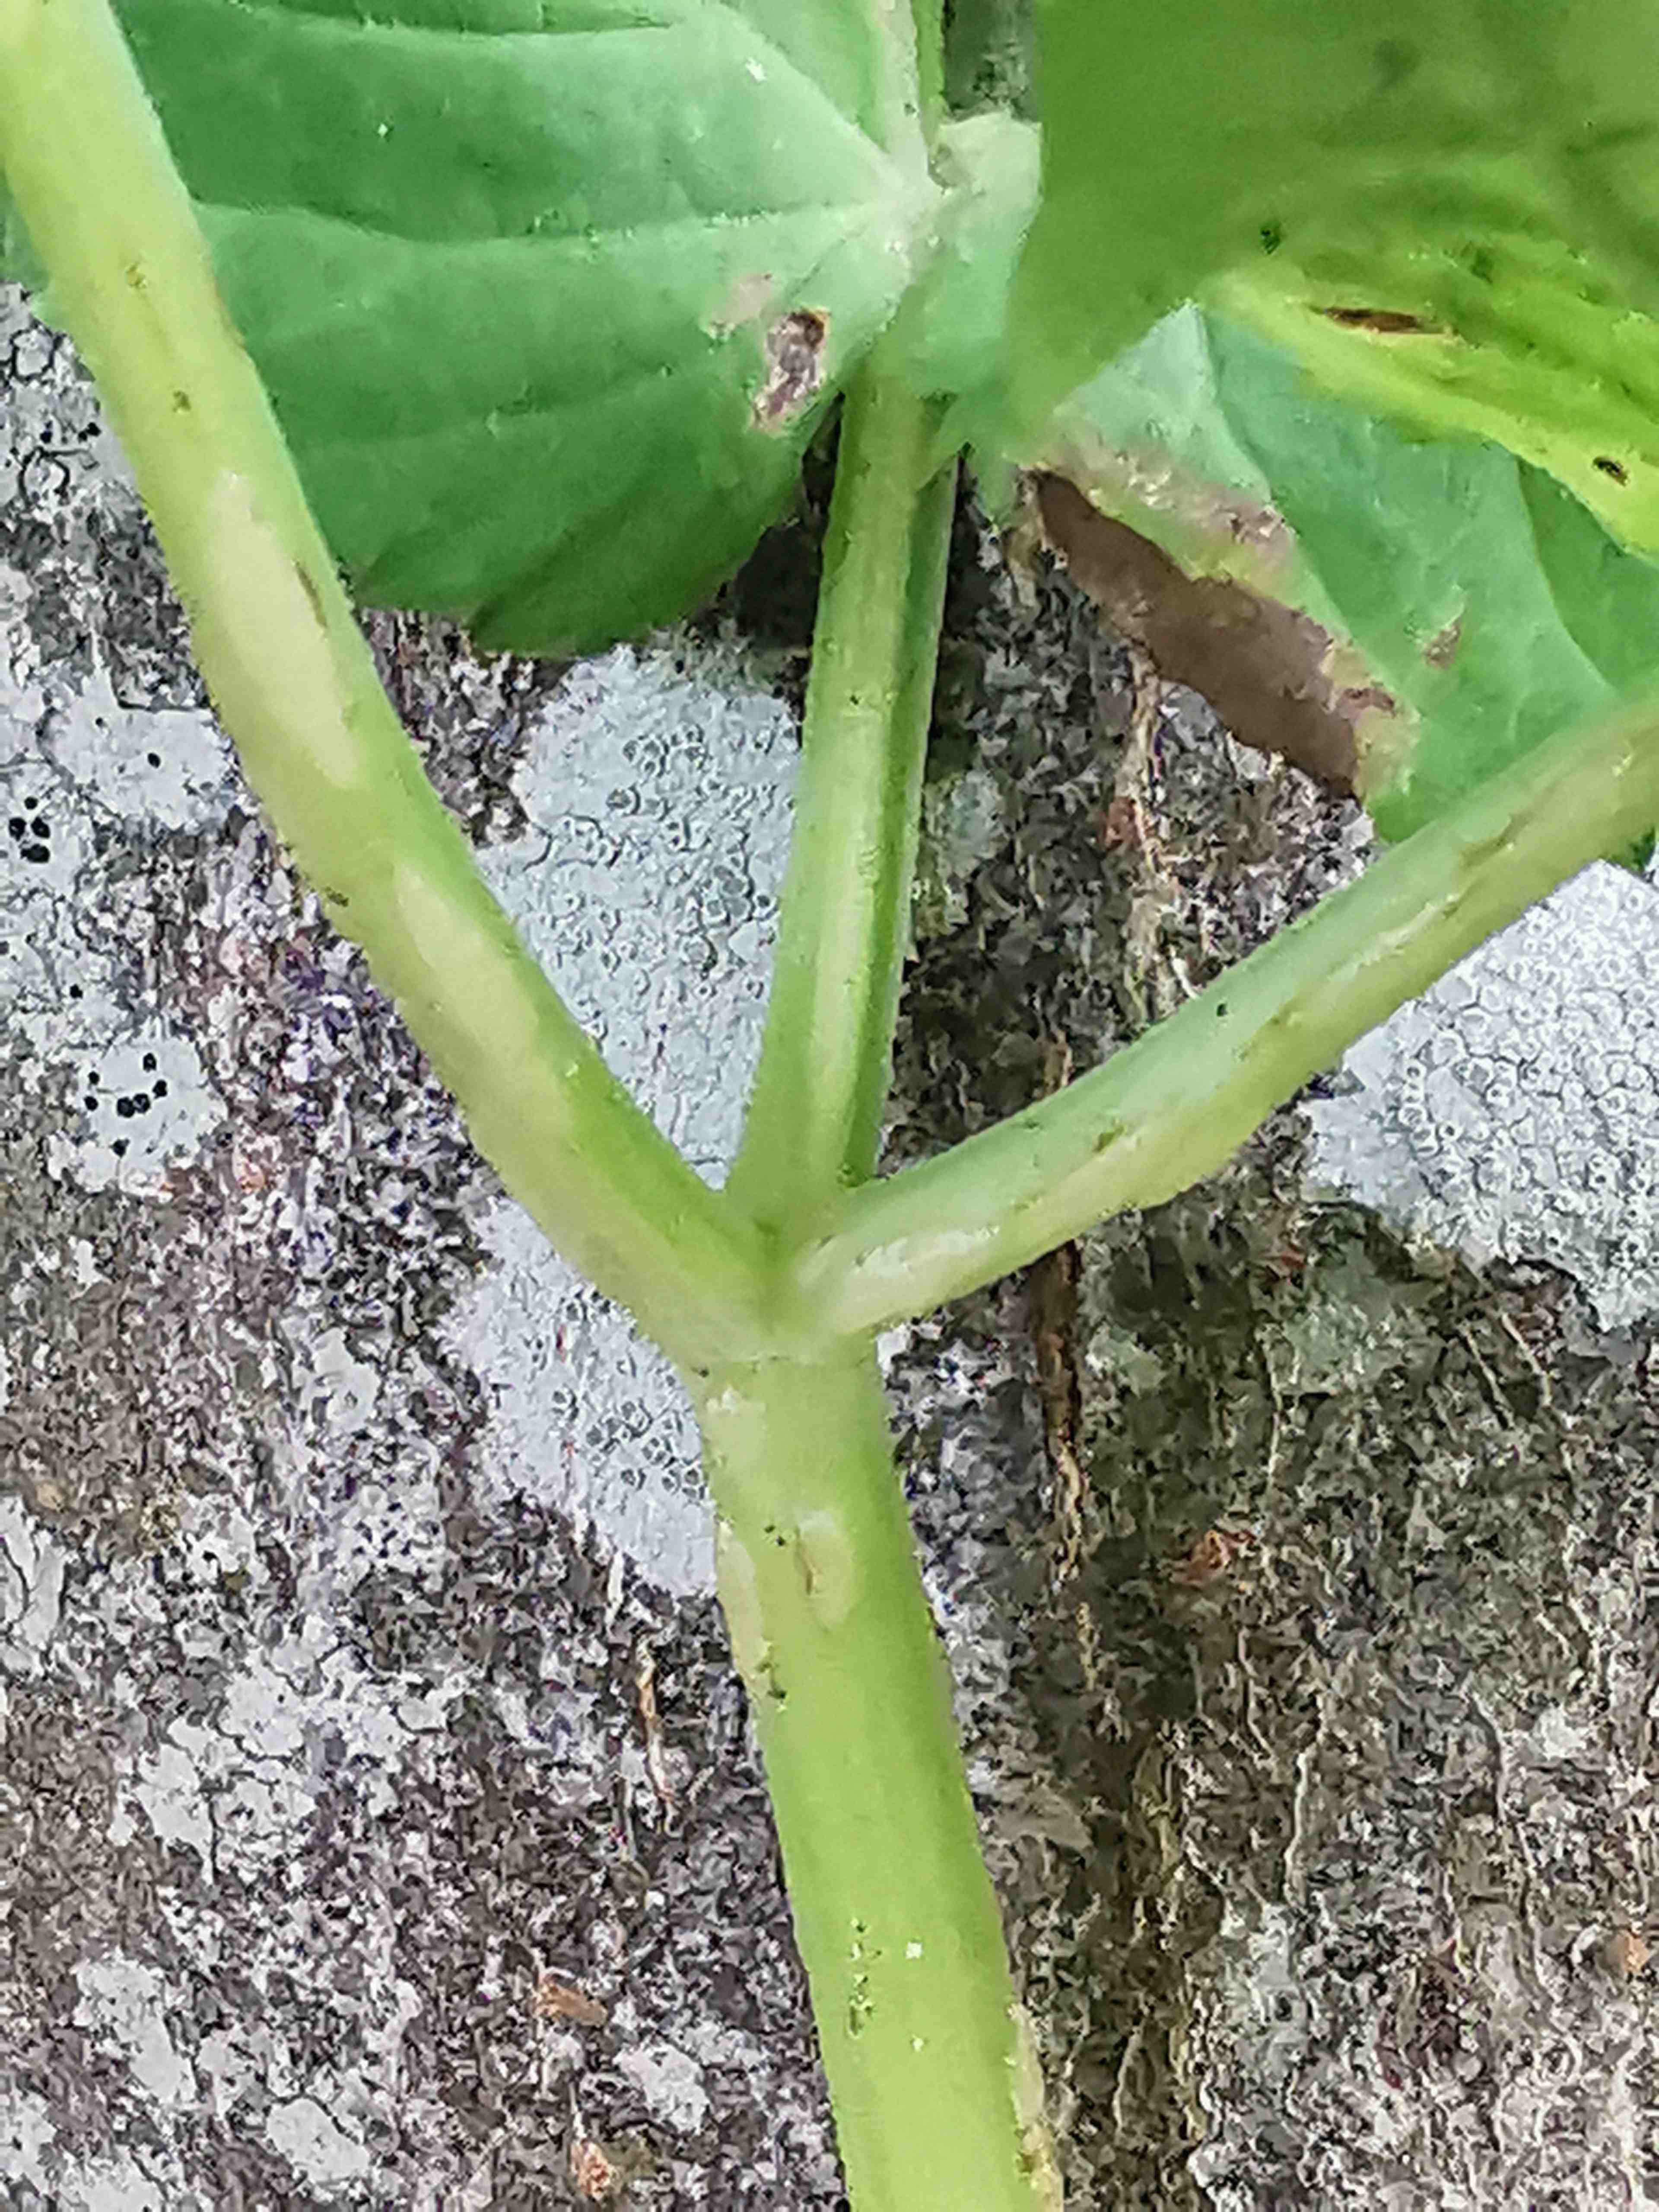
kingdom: Fungi
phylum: Ascomycota
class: Taphrinomycetes
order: Taphrinales
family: Taphrinaceae
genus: Protomyces
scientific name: Protomyces macrosporus
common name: skvalderkål-vablesæk
